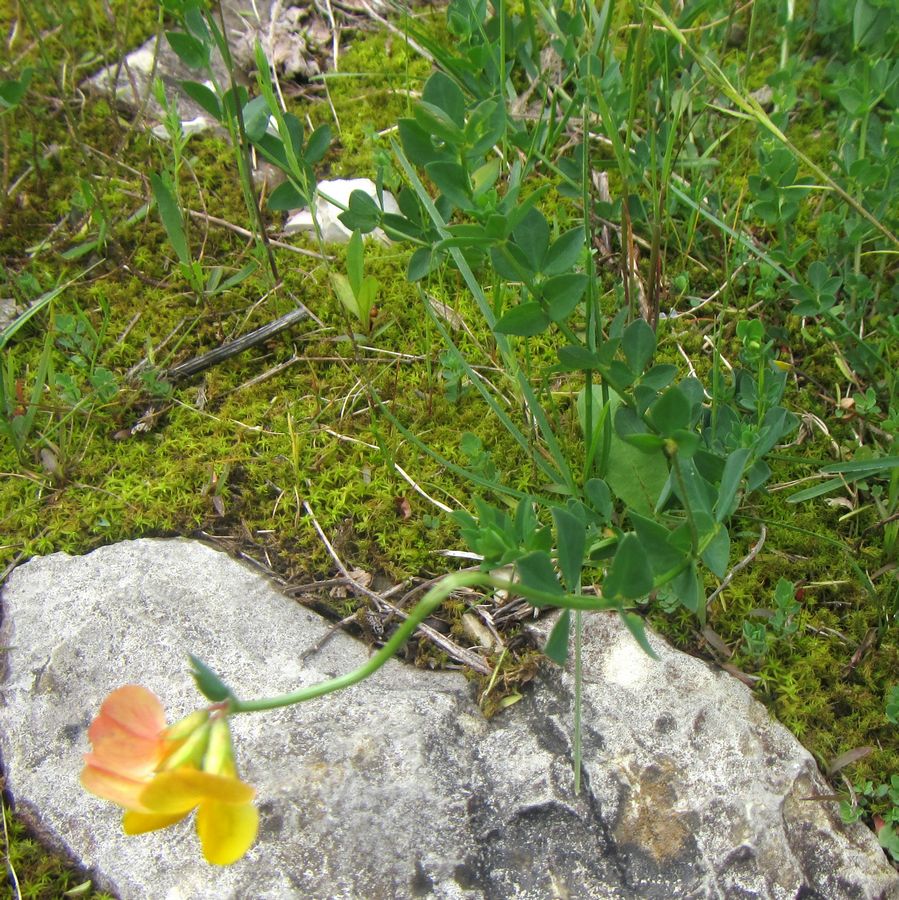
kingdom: Plantae
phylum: Tracheophyta
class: Magnoliopsida
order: Fabales
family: Fabaceae
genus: Lotus
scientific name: Lotus corniculatus
